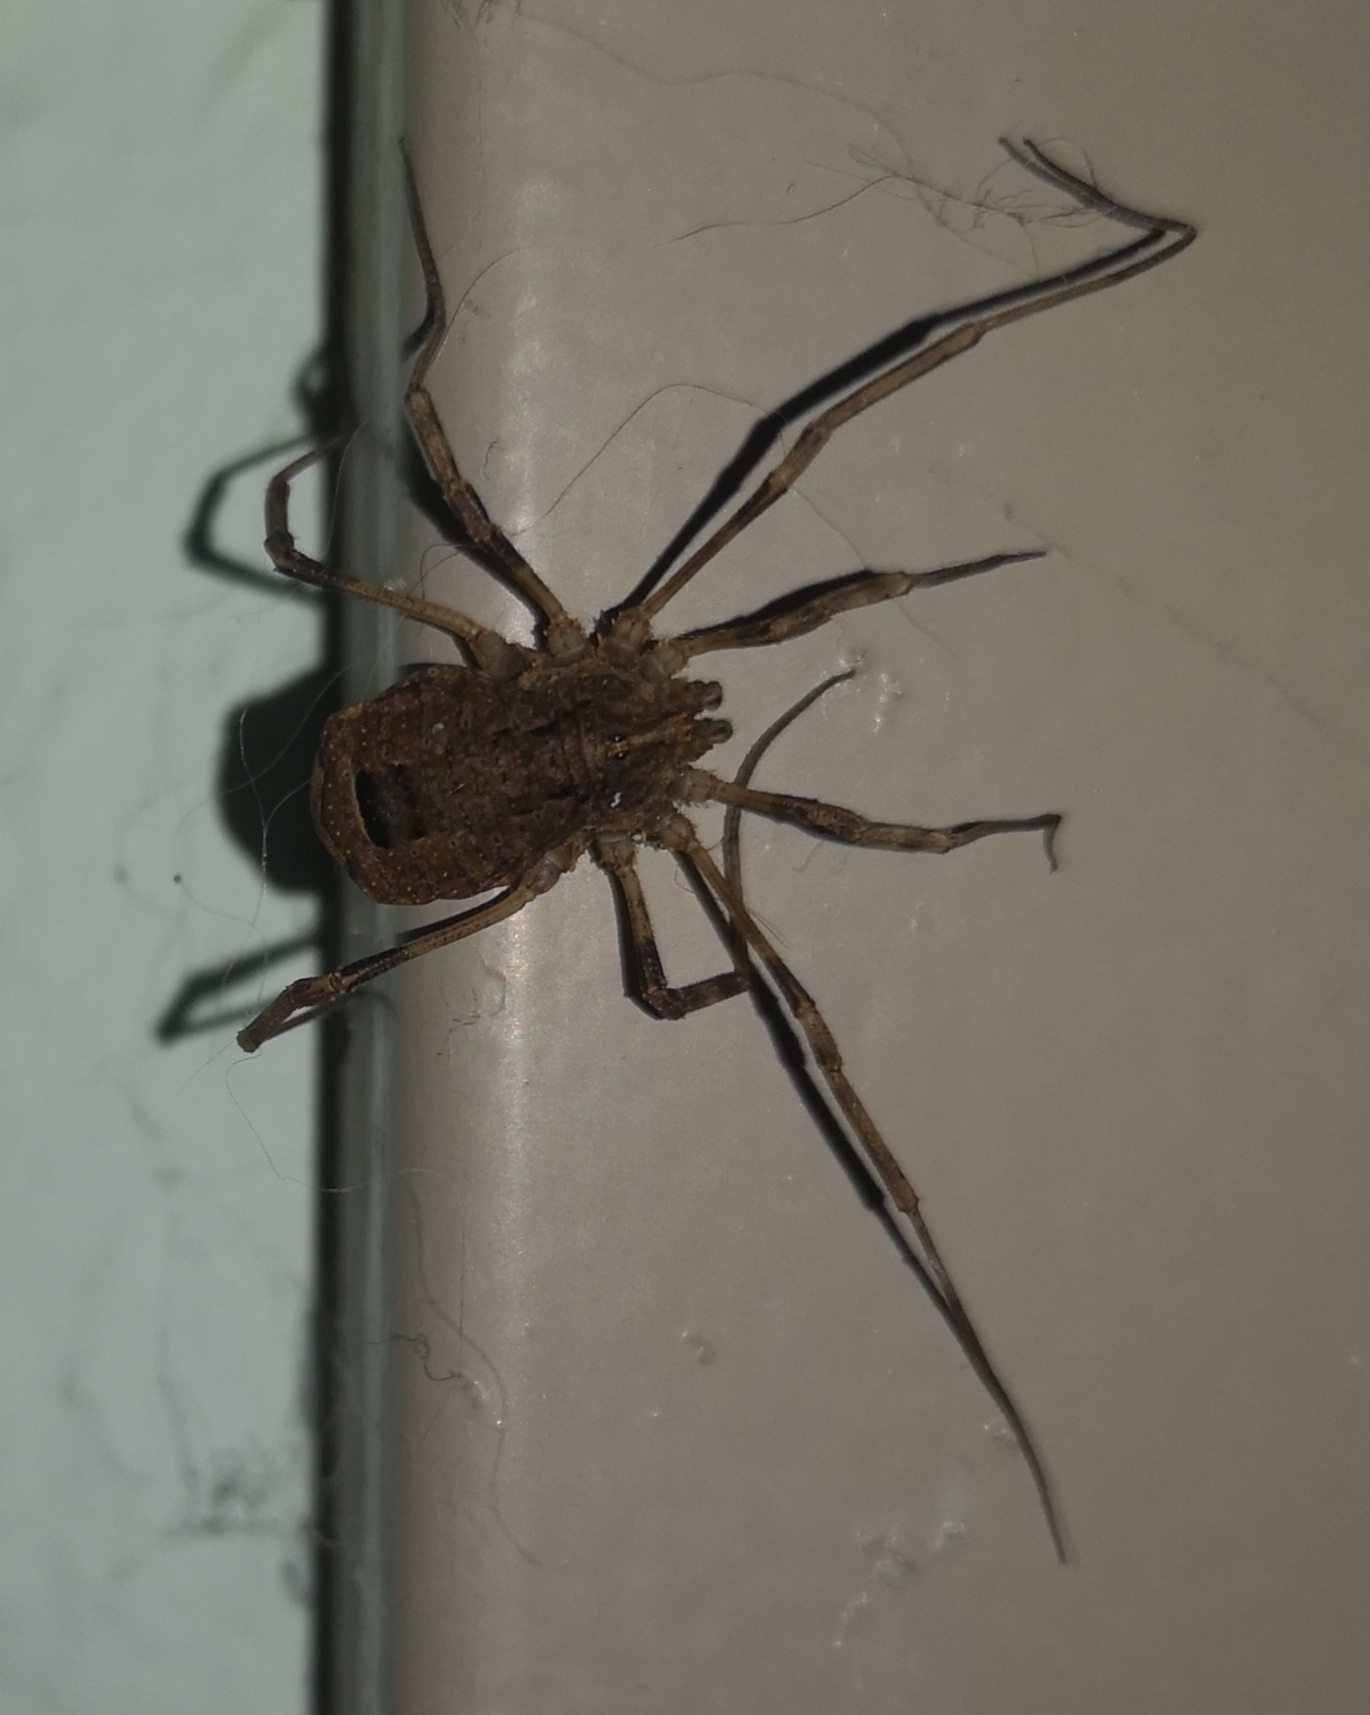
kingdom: Animalia
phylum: Arthropoda
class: Arachnida
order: Opiliones
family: Phalangiidae
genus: Odiellus
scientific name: Odiellus spinosus
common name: Kæmpemejer
